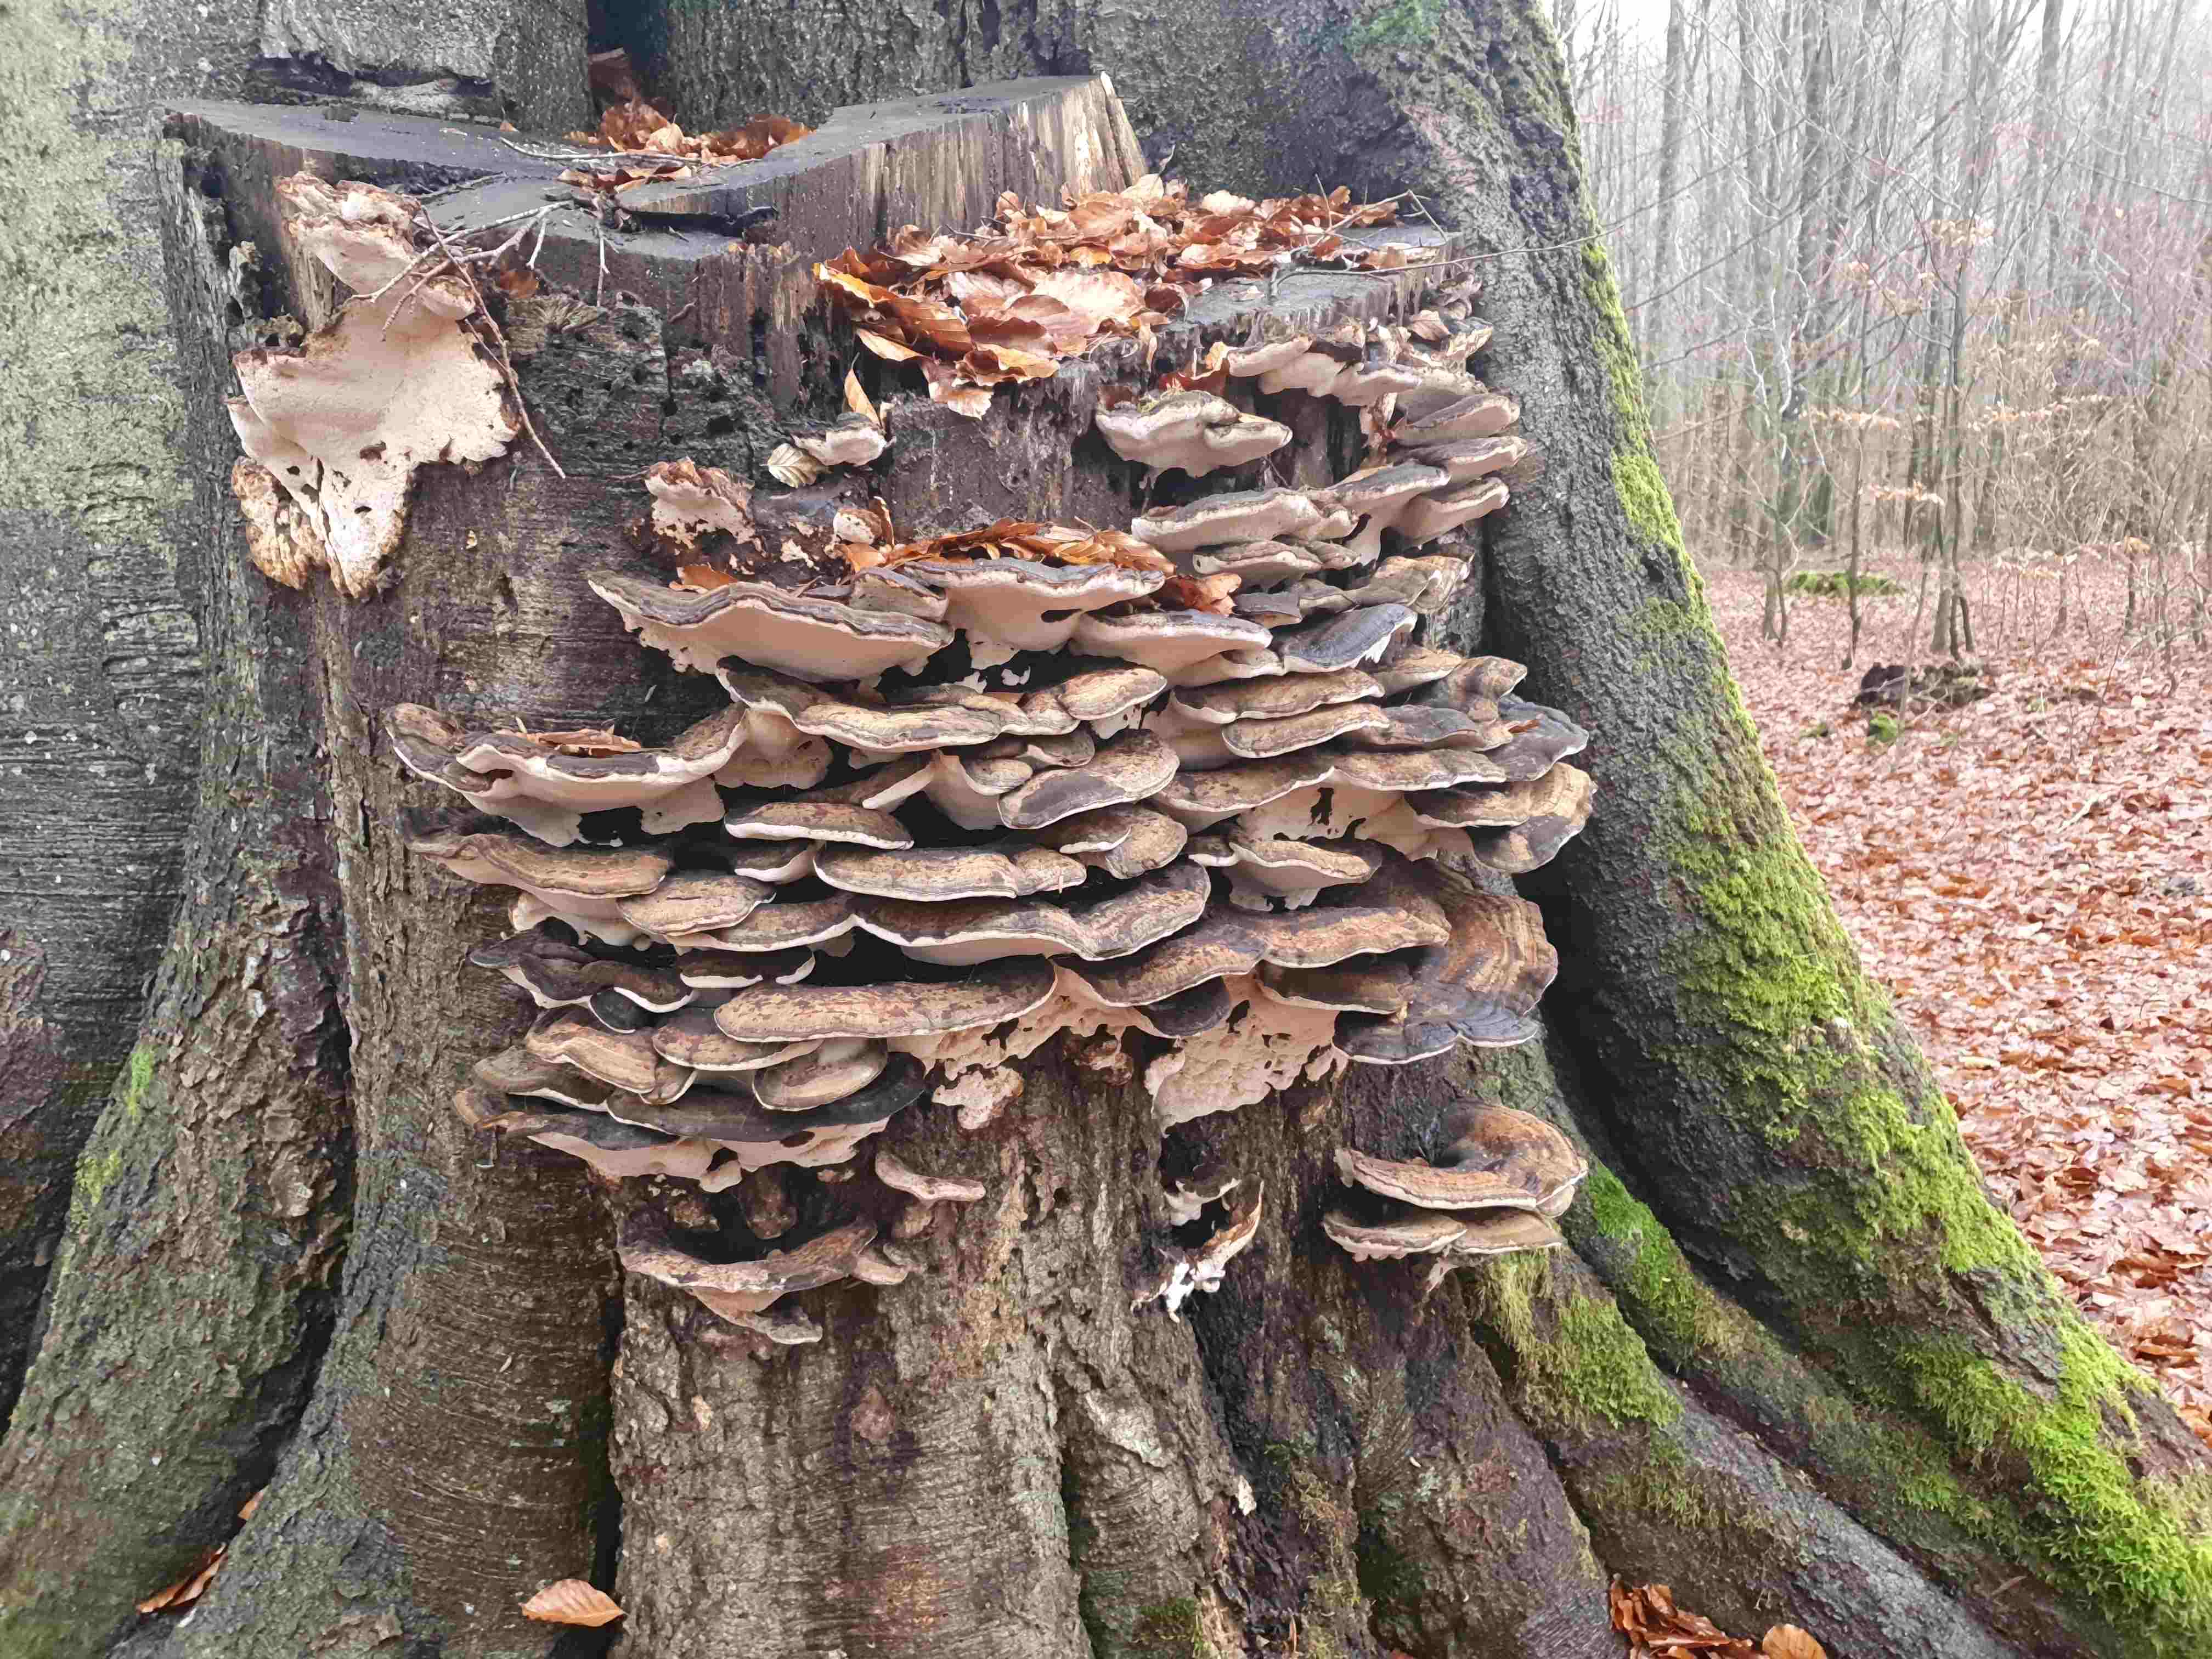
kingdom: Fungi
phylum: Basidiomycota
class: Agaricomycetes
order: Polyporales
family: Ischnodermataceae
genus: Ischnoderma
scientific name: Ischnoderma resinosum
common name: løv-tjæreporesvamp
